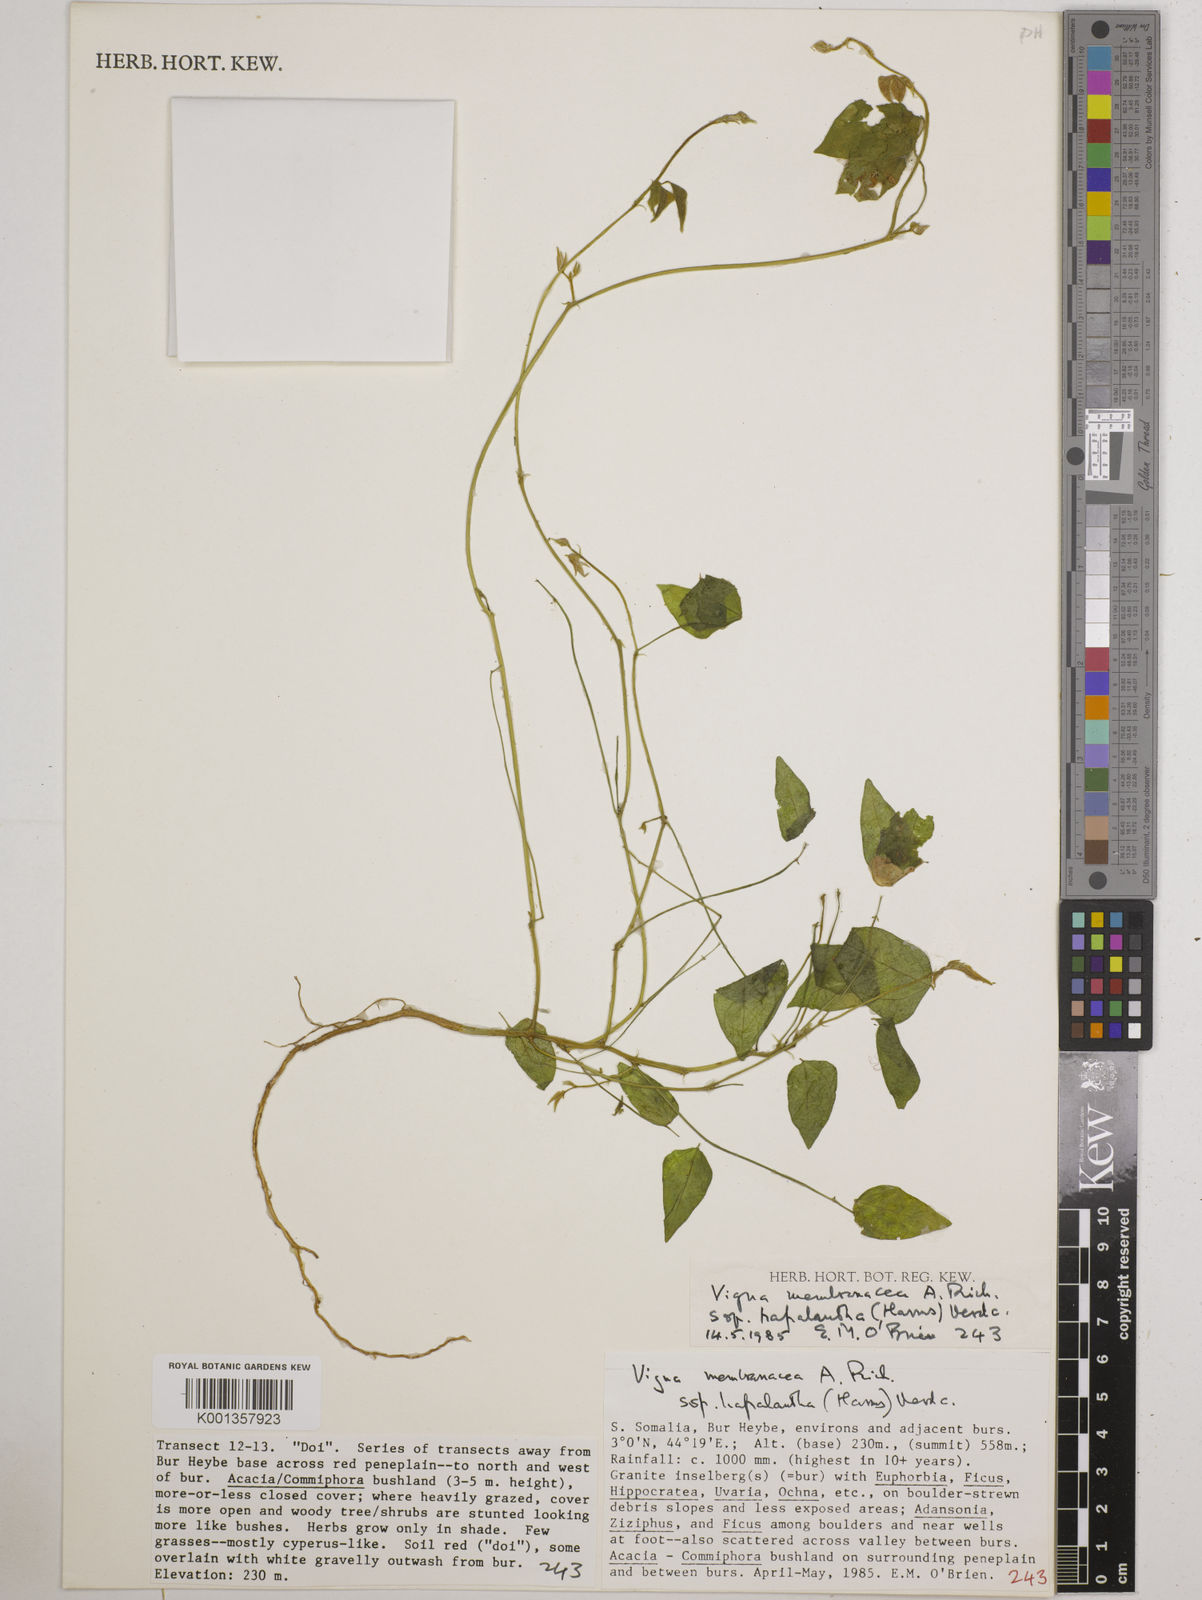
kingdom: Plantae
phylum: Tracheophyta
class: Magnoliopsida
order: Fabales
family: Fabaceae
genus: Vigna
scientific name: Vigna
